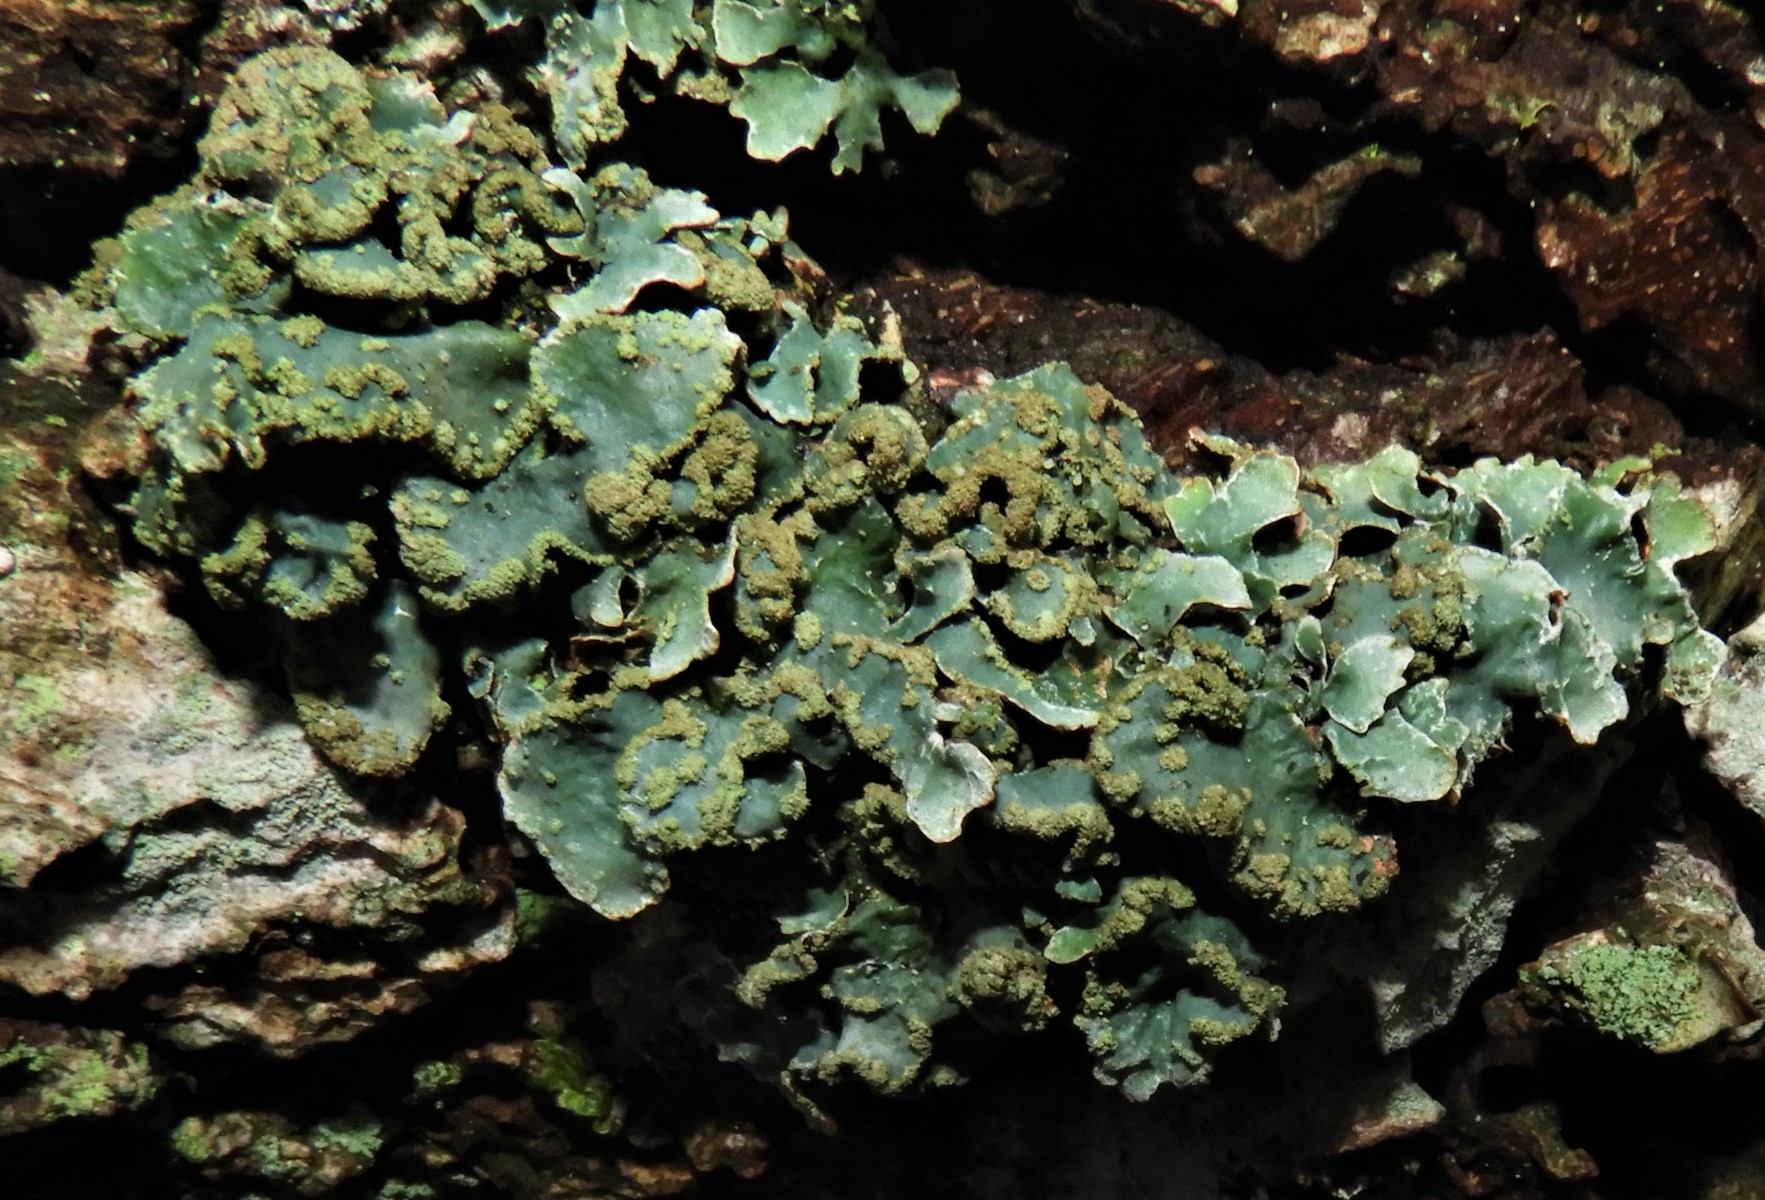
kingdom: Fungi
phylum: Ascomycota
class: Lecanoromycetes
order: Lecanorales
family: Parmeliaceae
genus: Parmelia
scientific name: Parmelia sulcata
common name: rynket skållav
